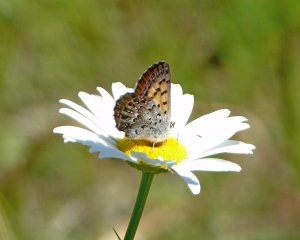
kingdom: Animalia
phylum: Arthropoda
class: Insecta
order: Lepidoptera
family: Lycaenidae
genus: Lycaena
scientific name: Lycaena mariposa
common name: Mariposa Copper
